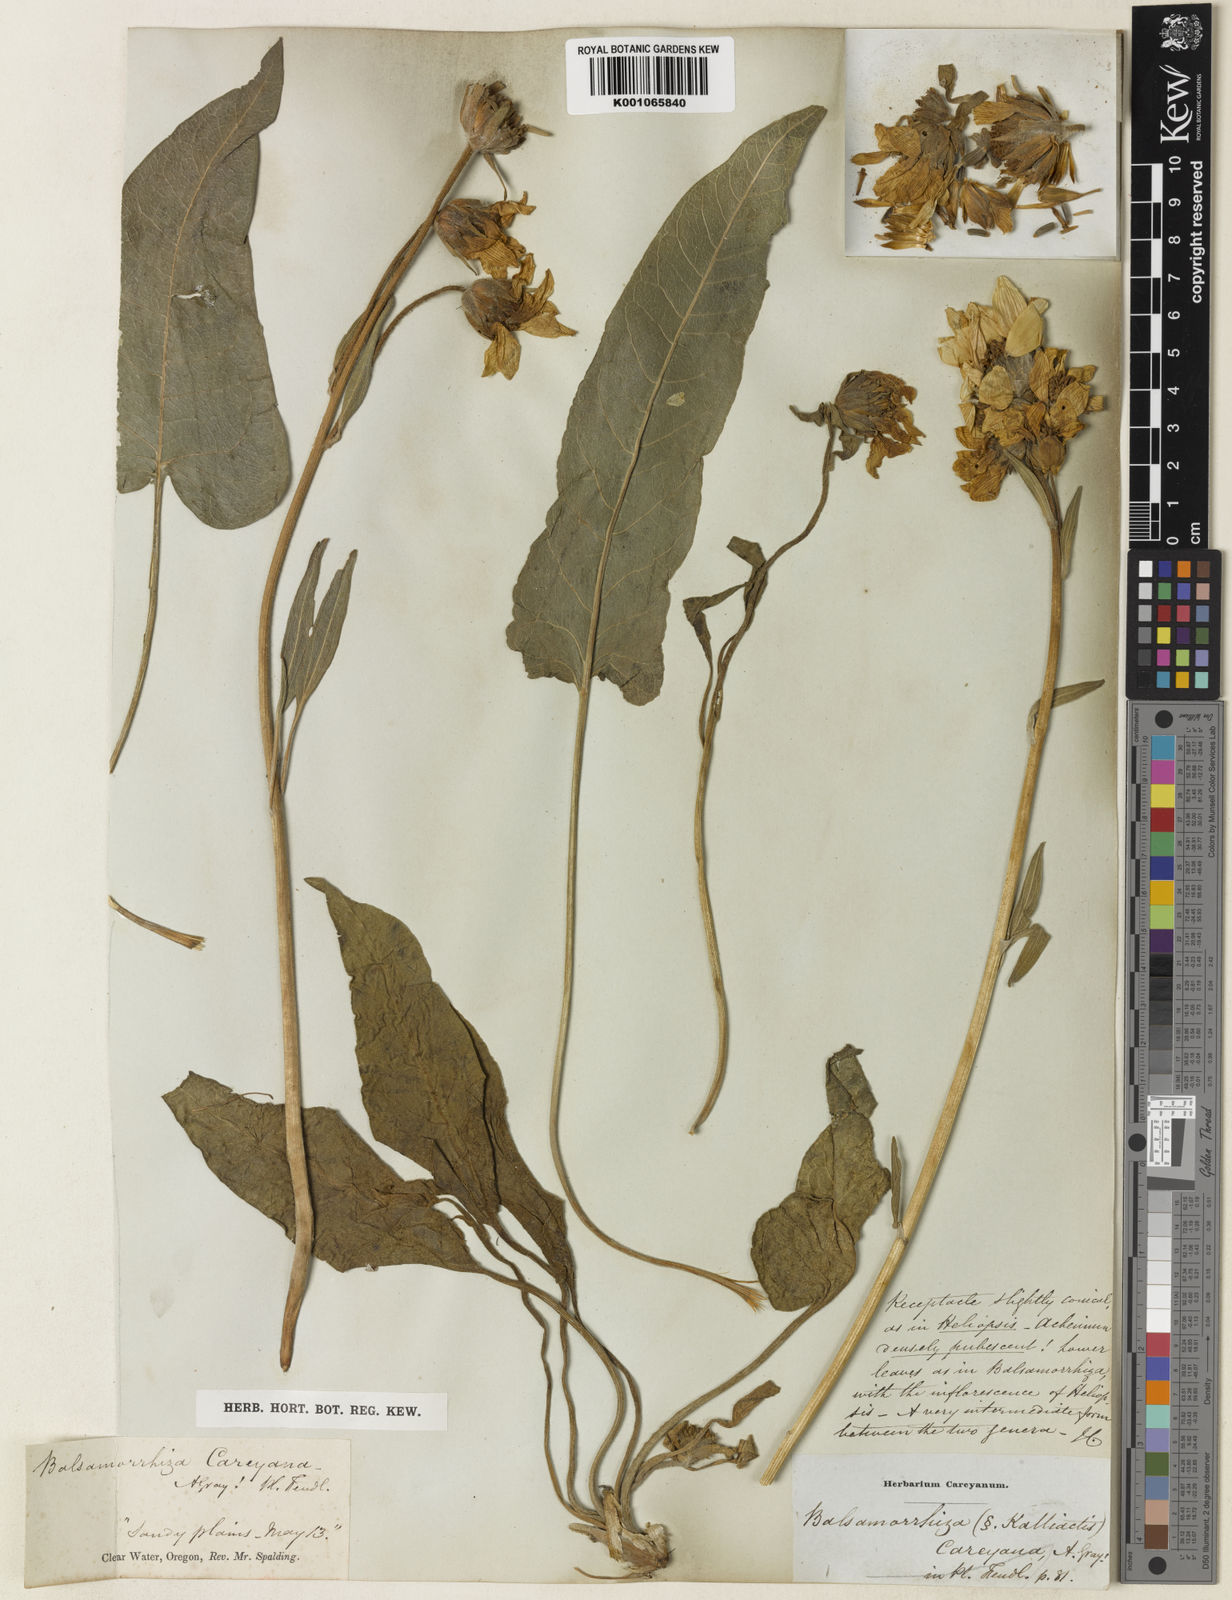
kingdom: Plantae
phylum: Tracheophyta
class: Magnoliopsida
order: Asterales
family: Asteraceae
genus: Balsamorhiza
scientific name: Balsamorhiza careyana
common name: Carey's balsamroot
